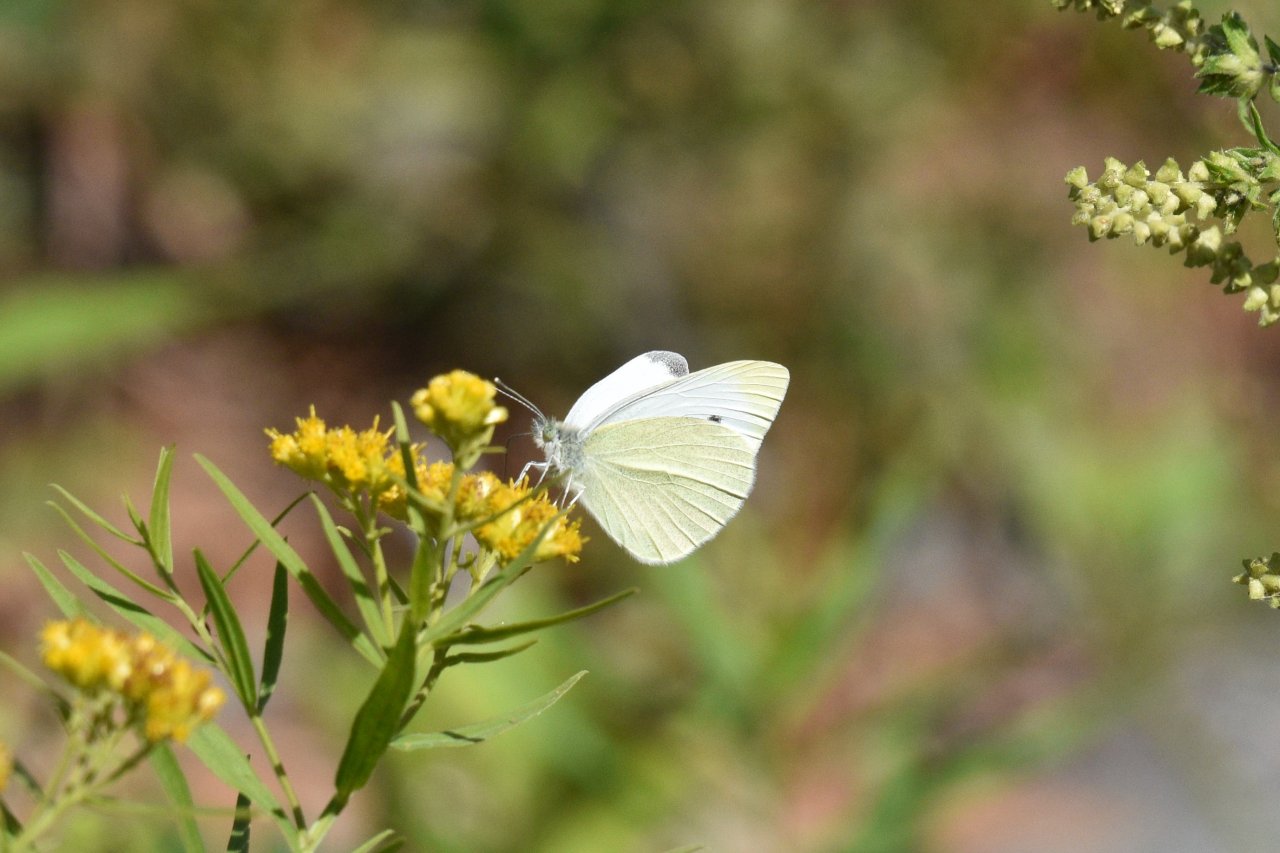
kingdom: Animalia
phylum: Arthropoda
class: Insecta
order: Lepidoptera
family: Pieridae
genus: Pieris
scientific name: Pieris rapae
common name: Cabbage White
